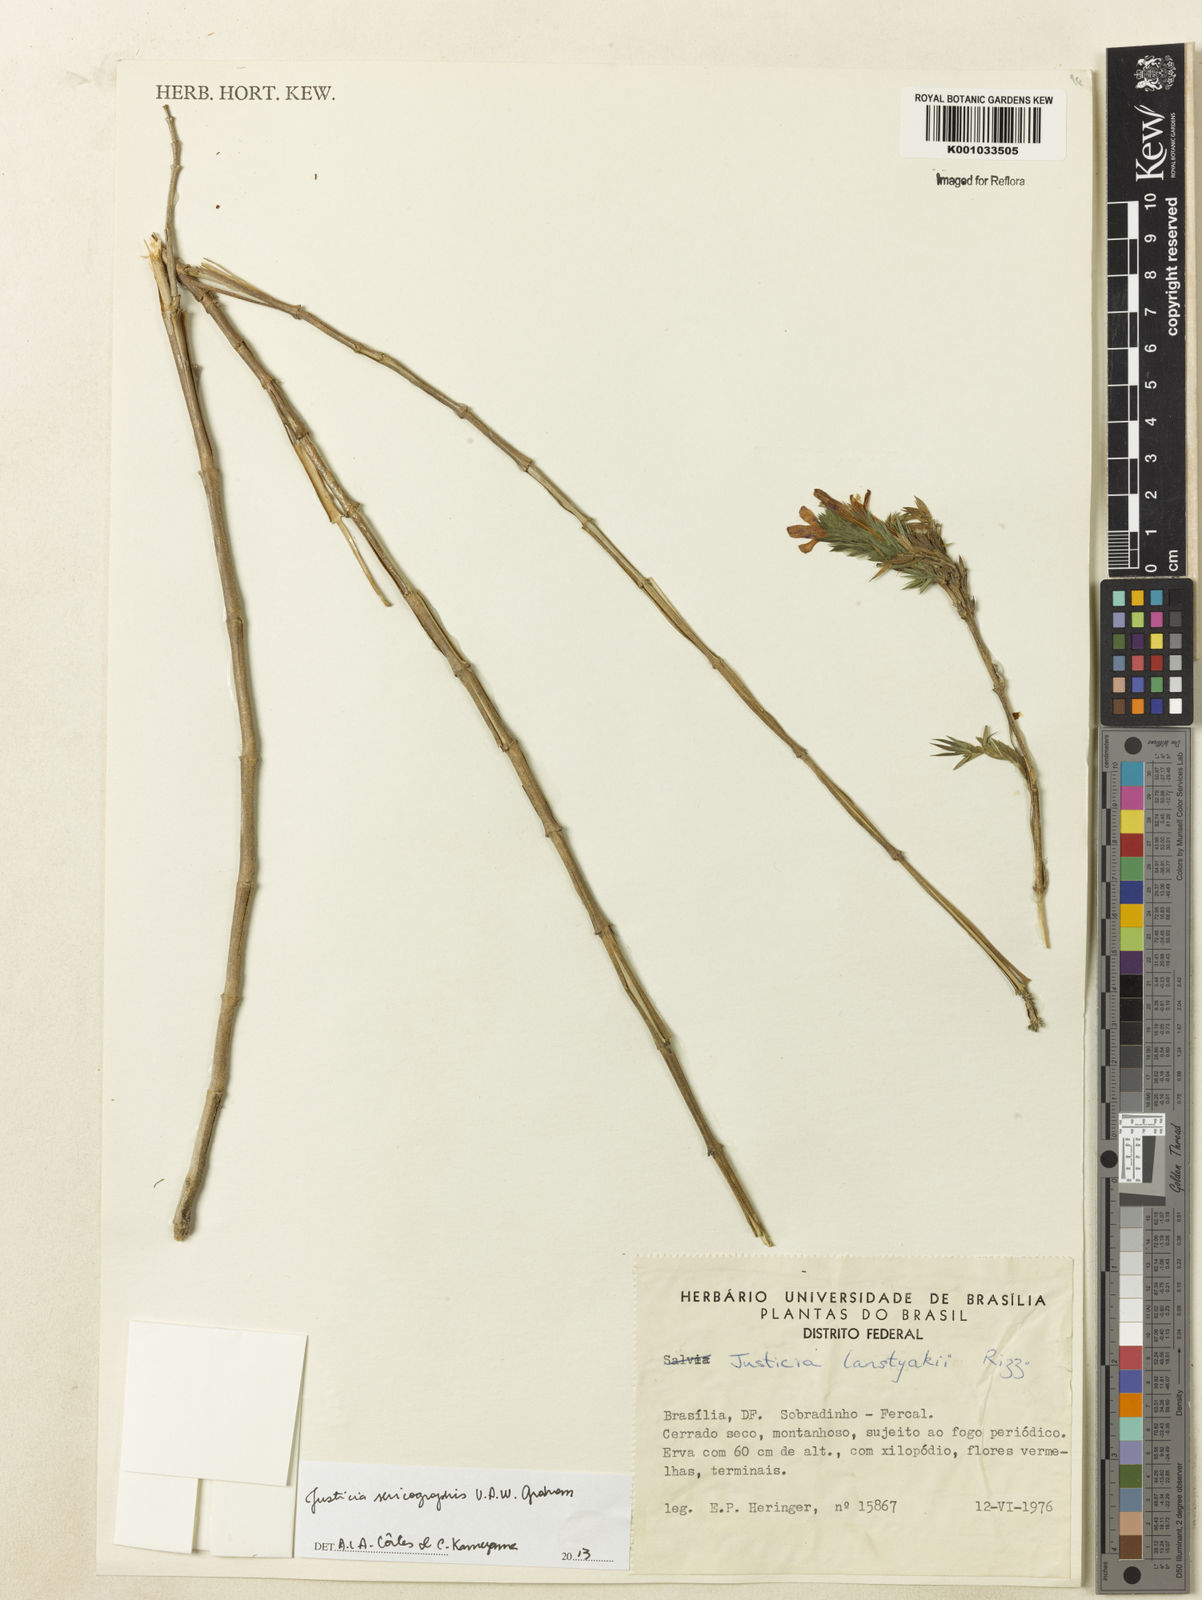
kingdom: Plantae
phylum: Tracheophyta
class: Magnoliopsida
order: Lamiales
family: Acanthaceae
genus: Dianthera
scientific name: Dianthera rigida
